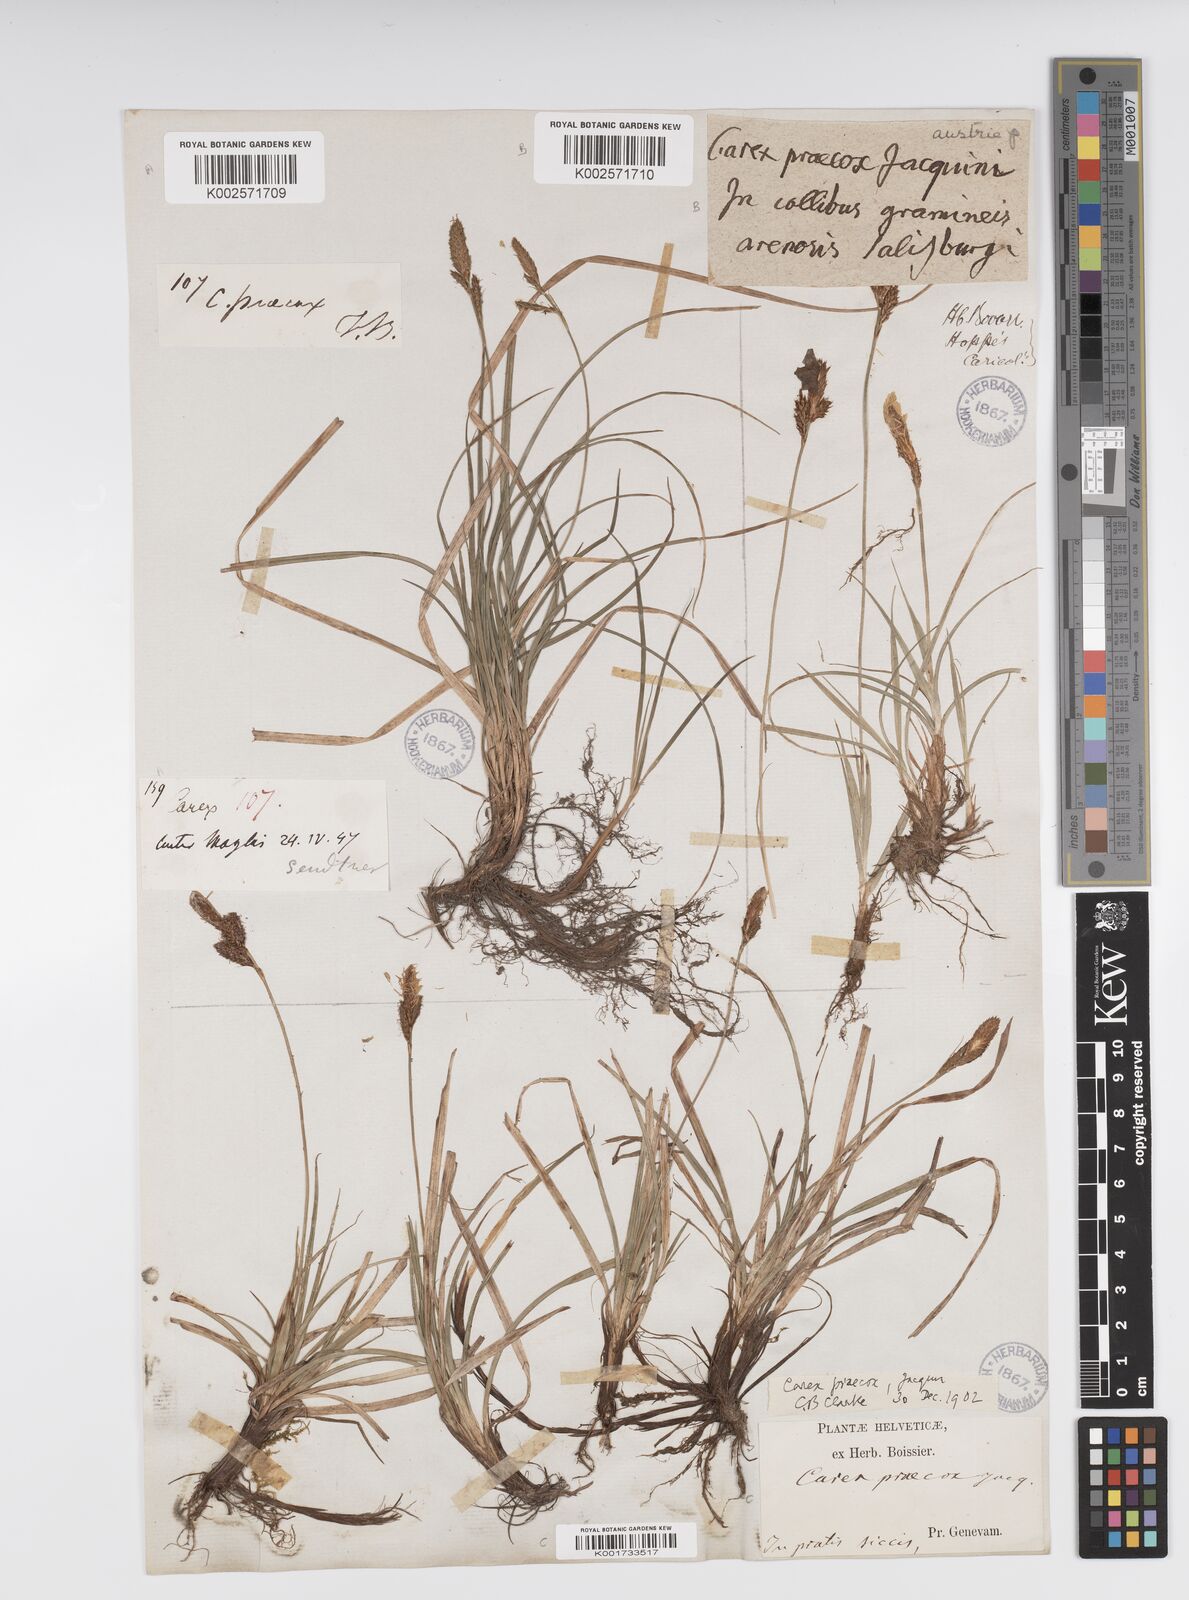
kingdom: Plantae
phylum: Tracheophyta
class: Liliopsida
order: Poales
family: Cyperaceae
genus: Carex
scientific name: Carex caryophyllea
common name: Spring sedge
